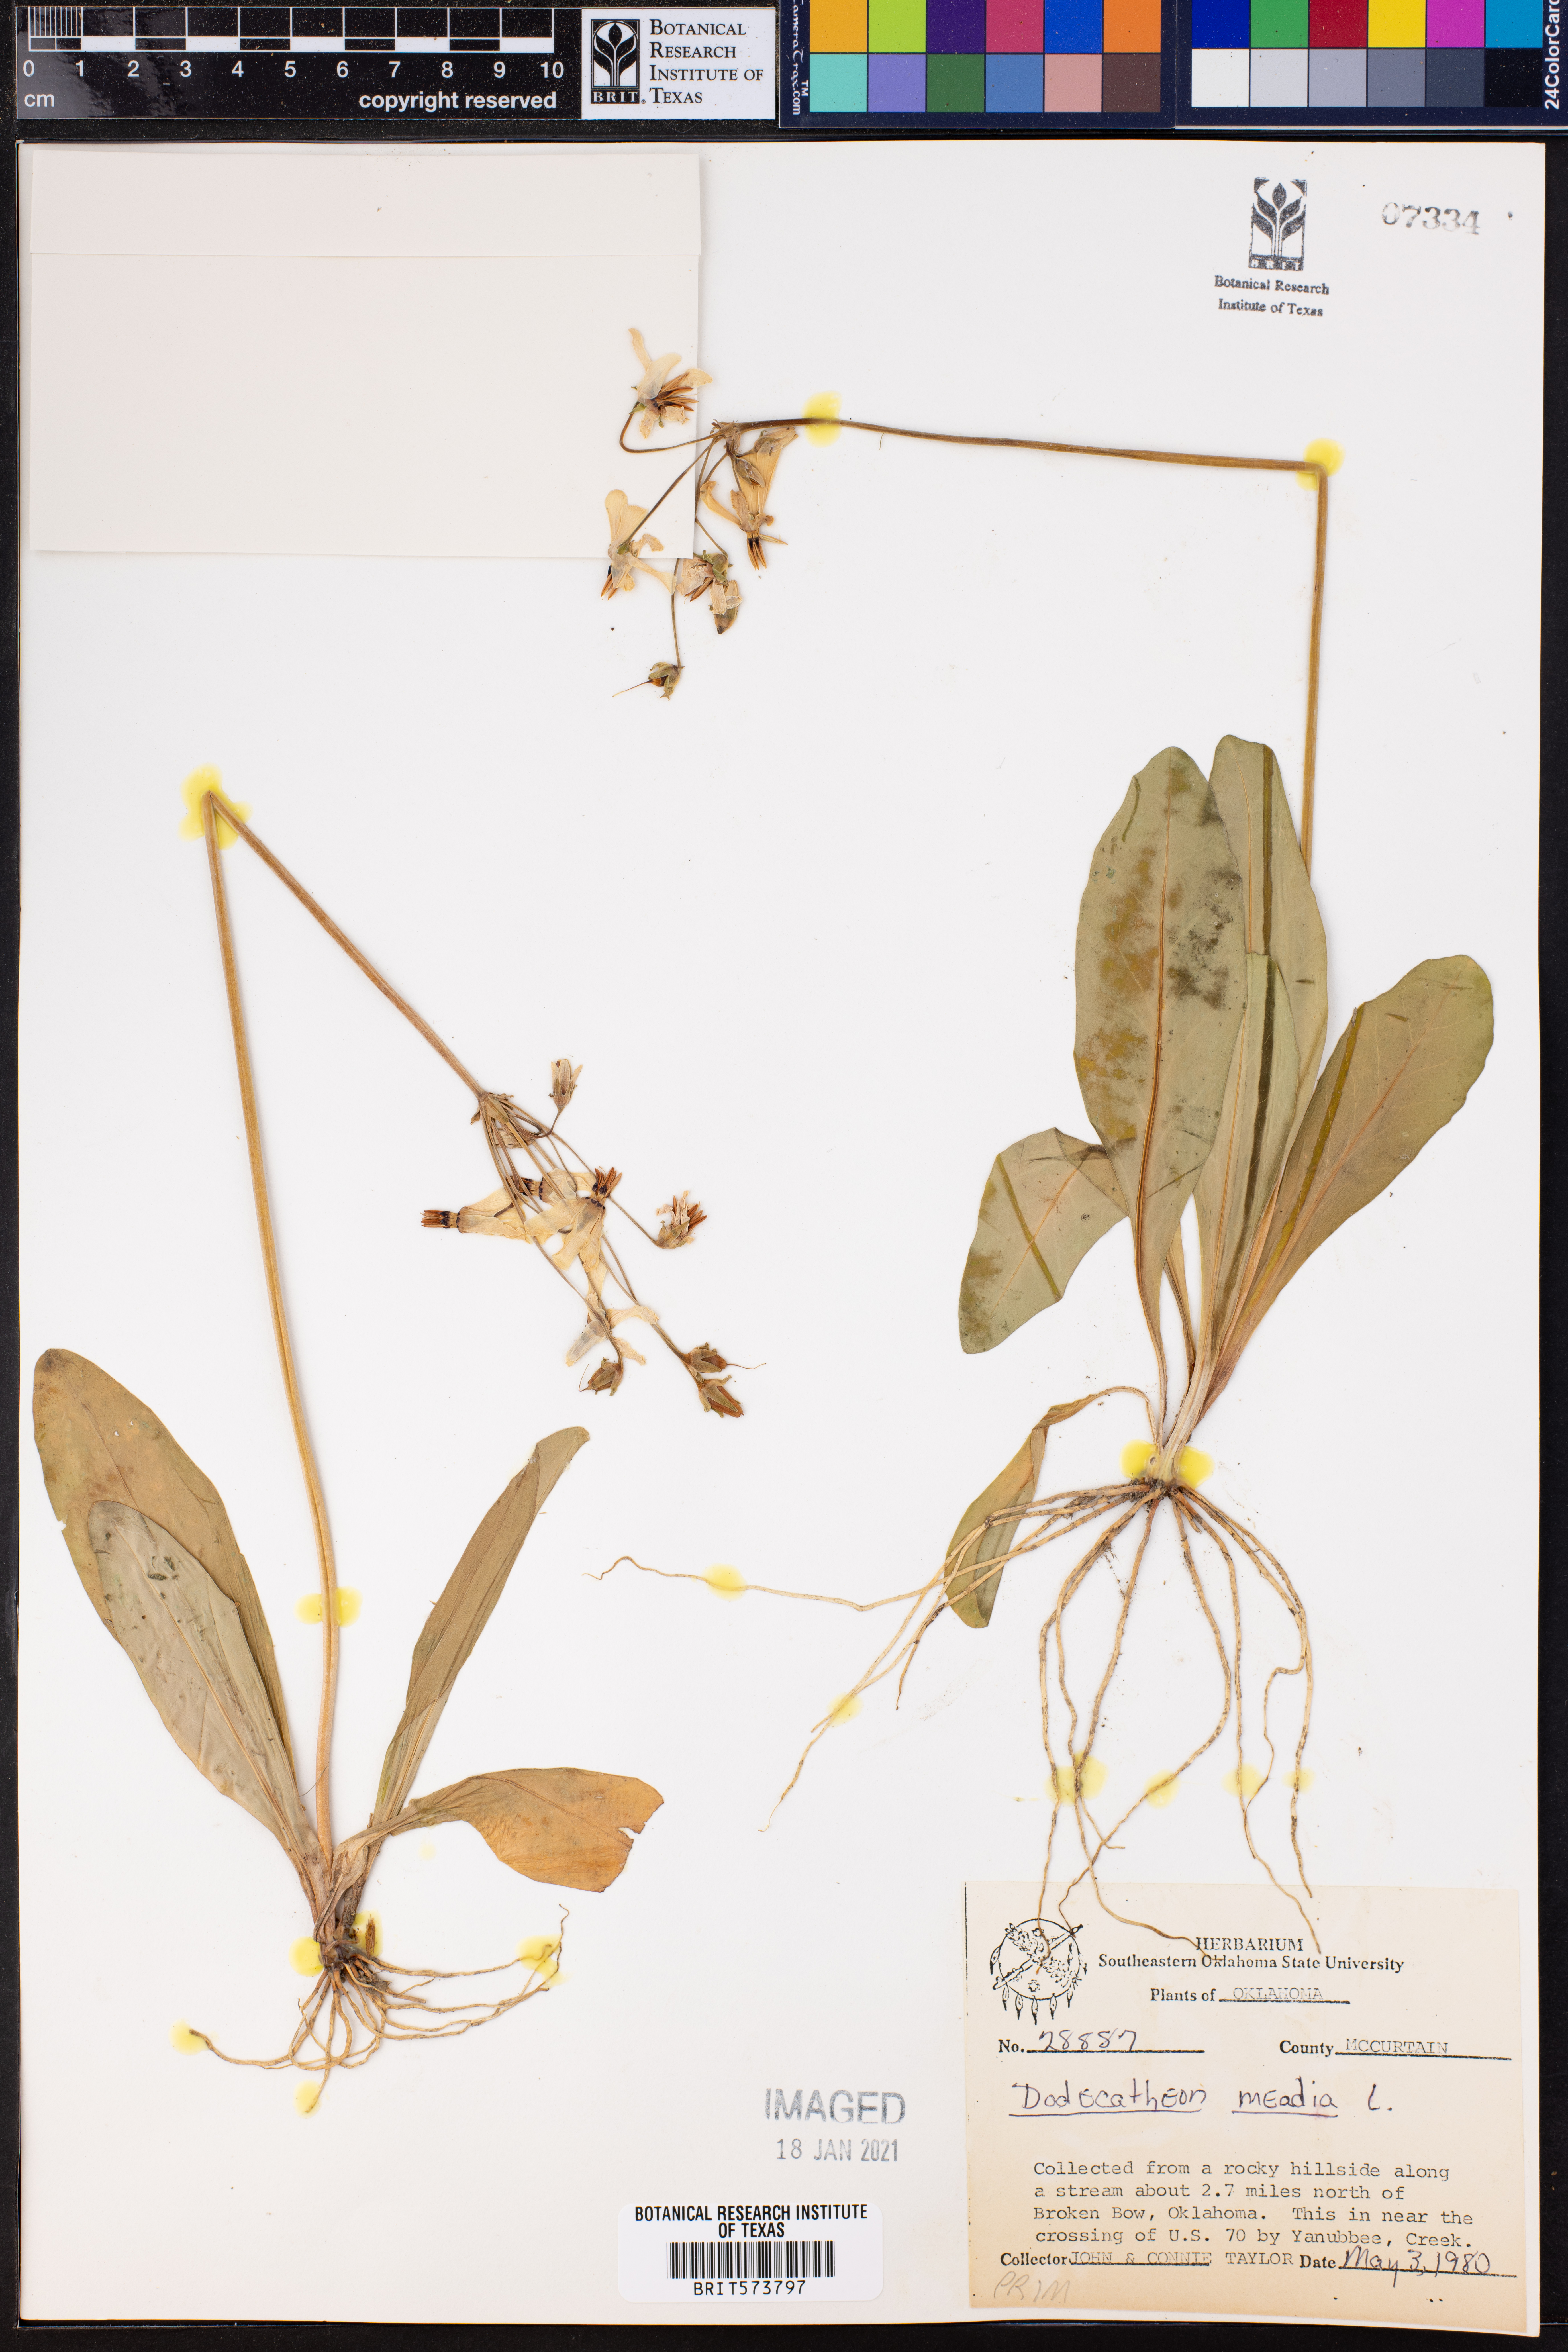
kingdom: Plantae
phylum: Tracheophyta
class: Magnoliopsida
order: Ericales
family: Primulaceae
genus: Dodecatheon
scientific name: Dodecatheon meadia
